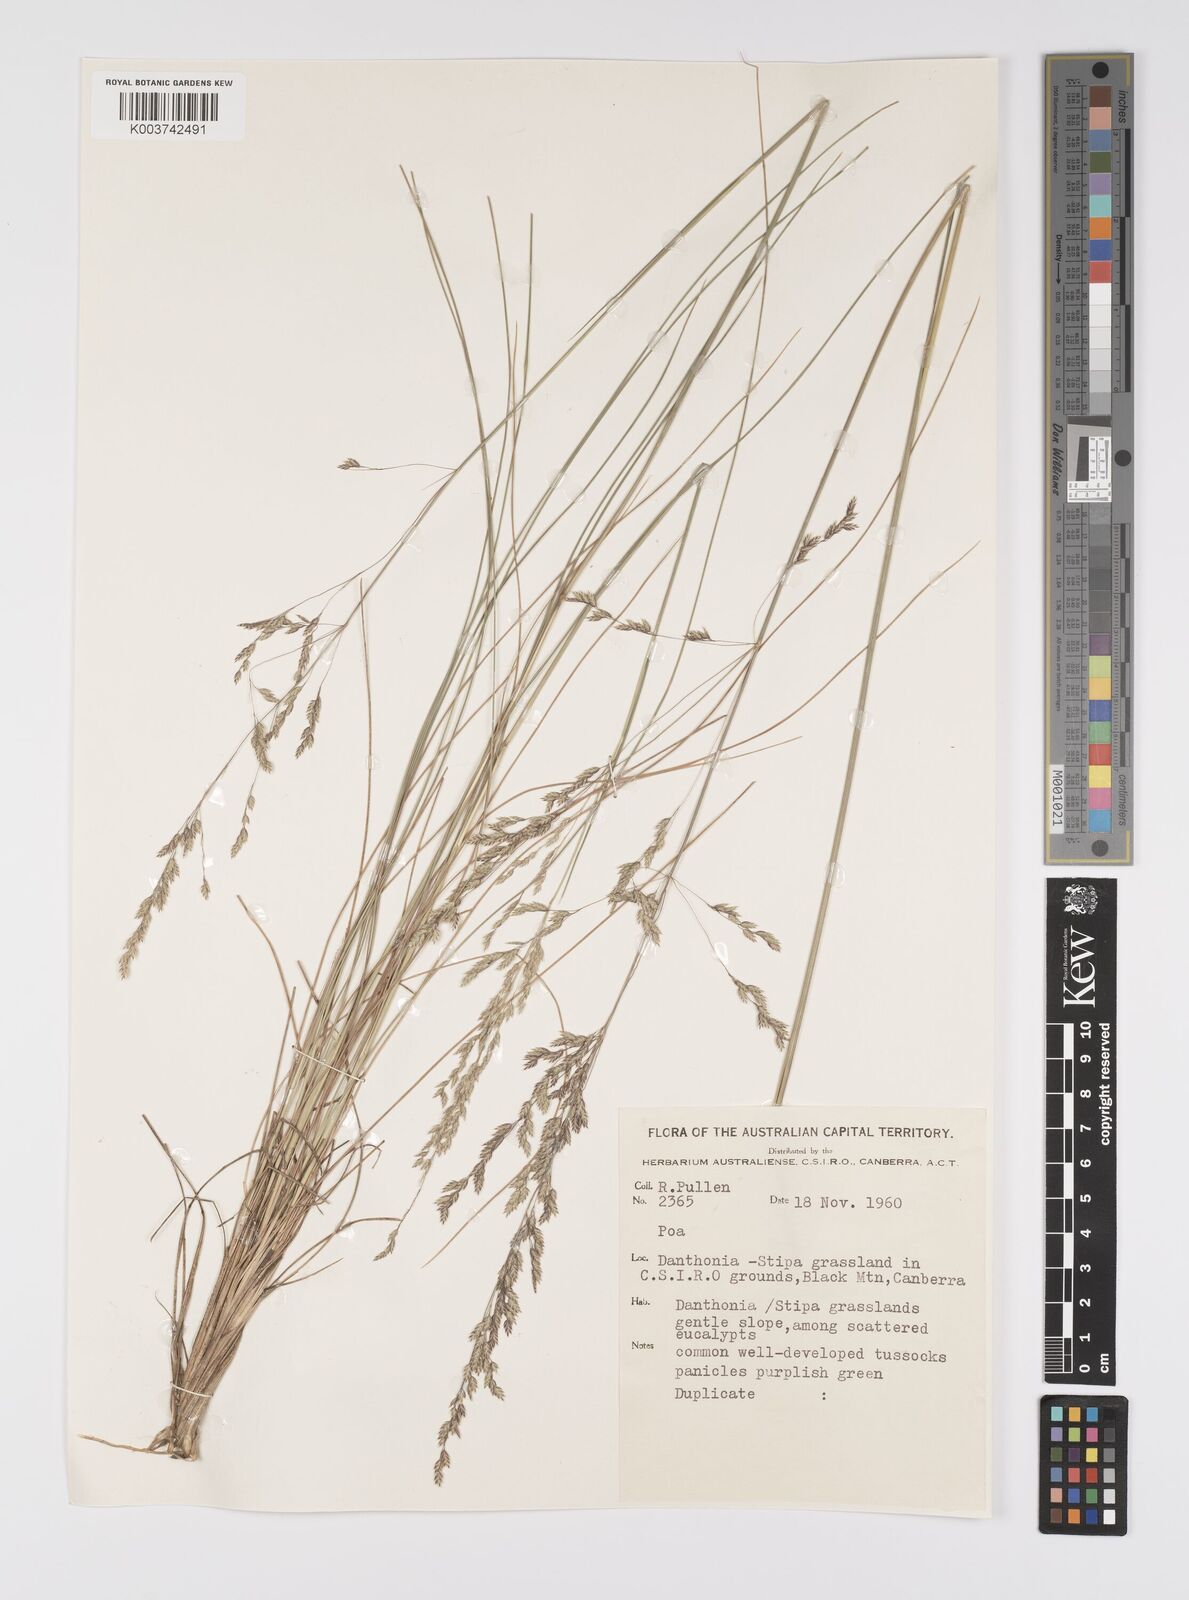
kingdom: Plantae
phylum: Tracheophyta
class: Liliopsida
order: Poales
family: Poaceae
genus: Poa
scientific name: Poa
